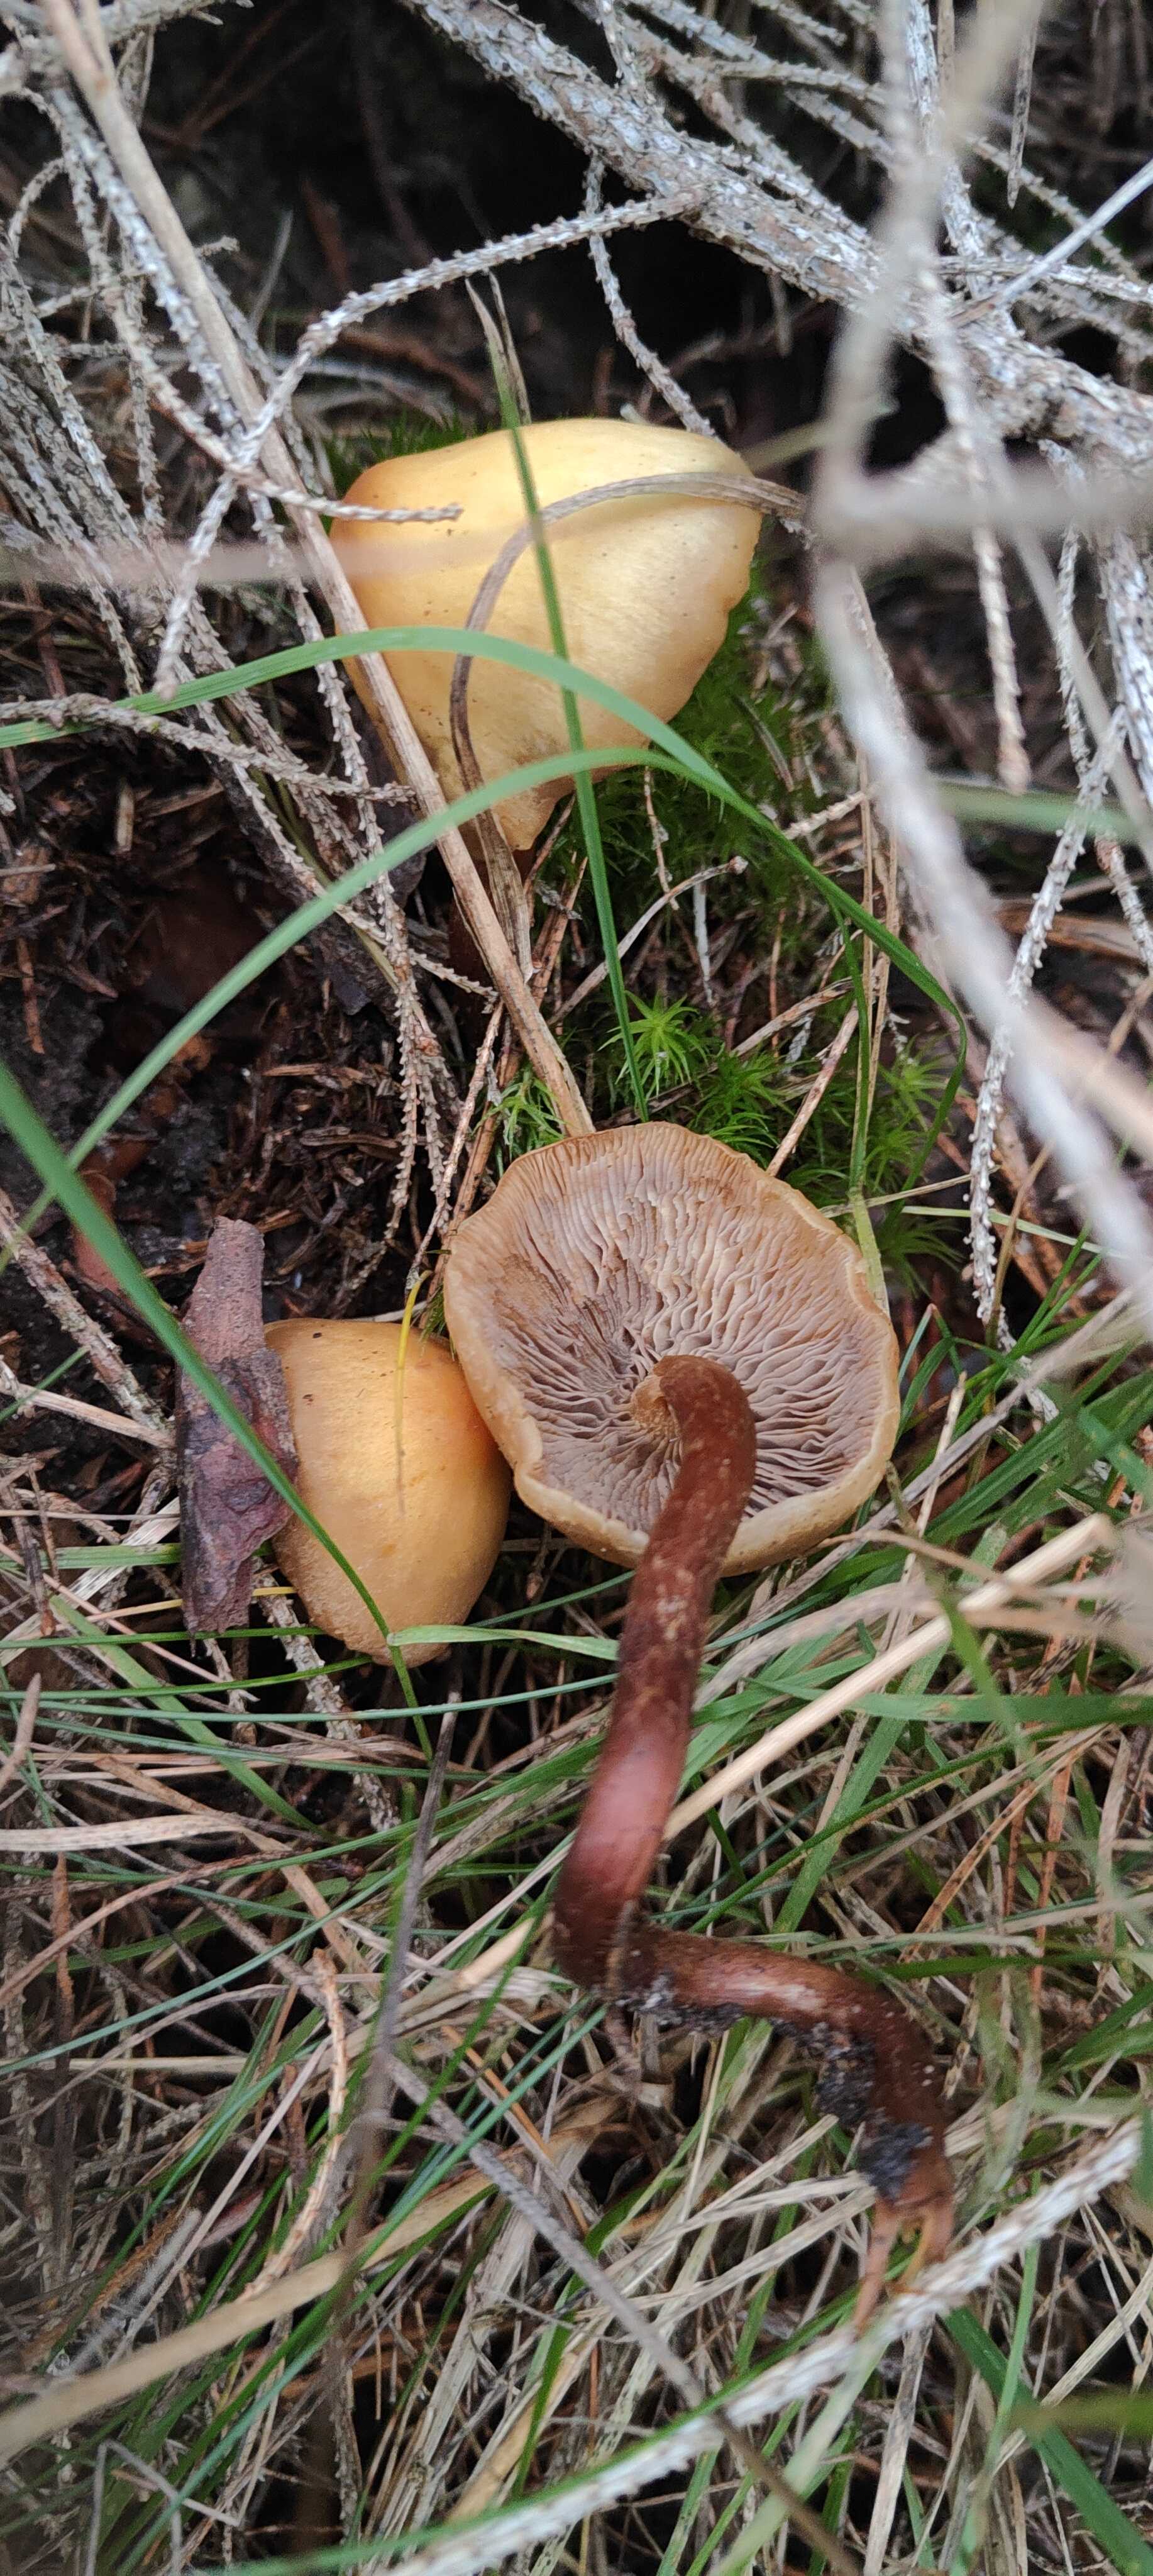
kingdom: Fungi
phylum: Basidiomycota
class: Agaricomycetes
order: Agaricales
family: Strophariaceae
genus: Hypholoma
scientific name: Hypholoma capnoides
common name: gran-svovlhat
